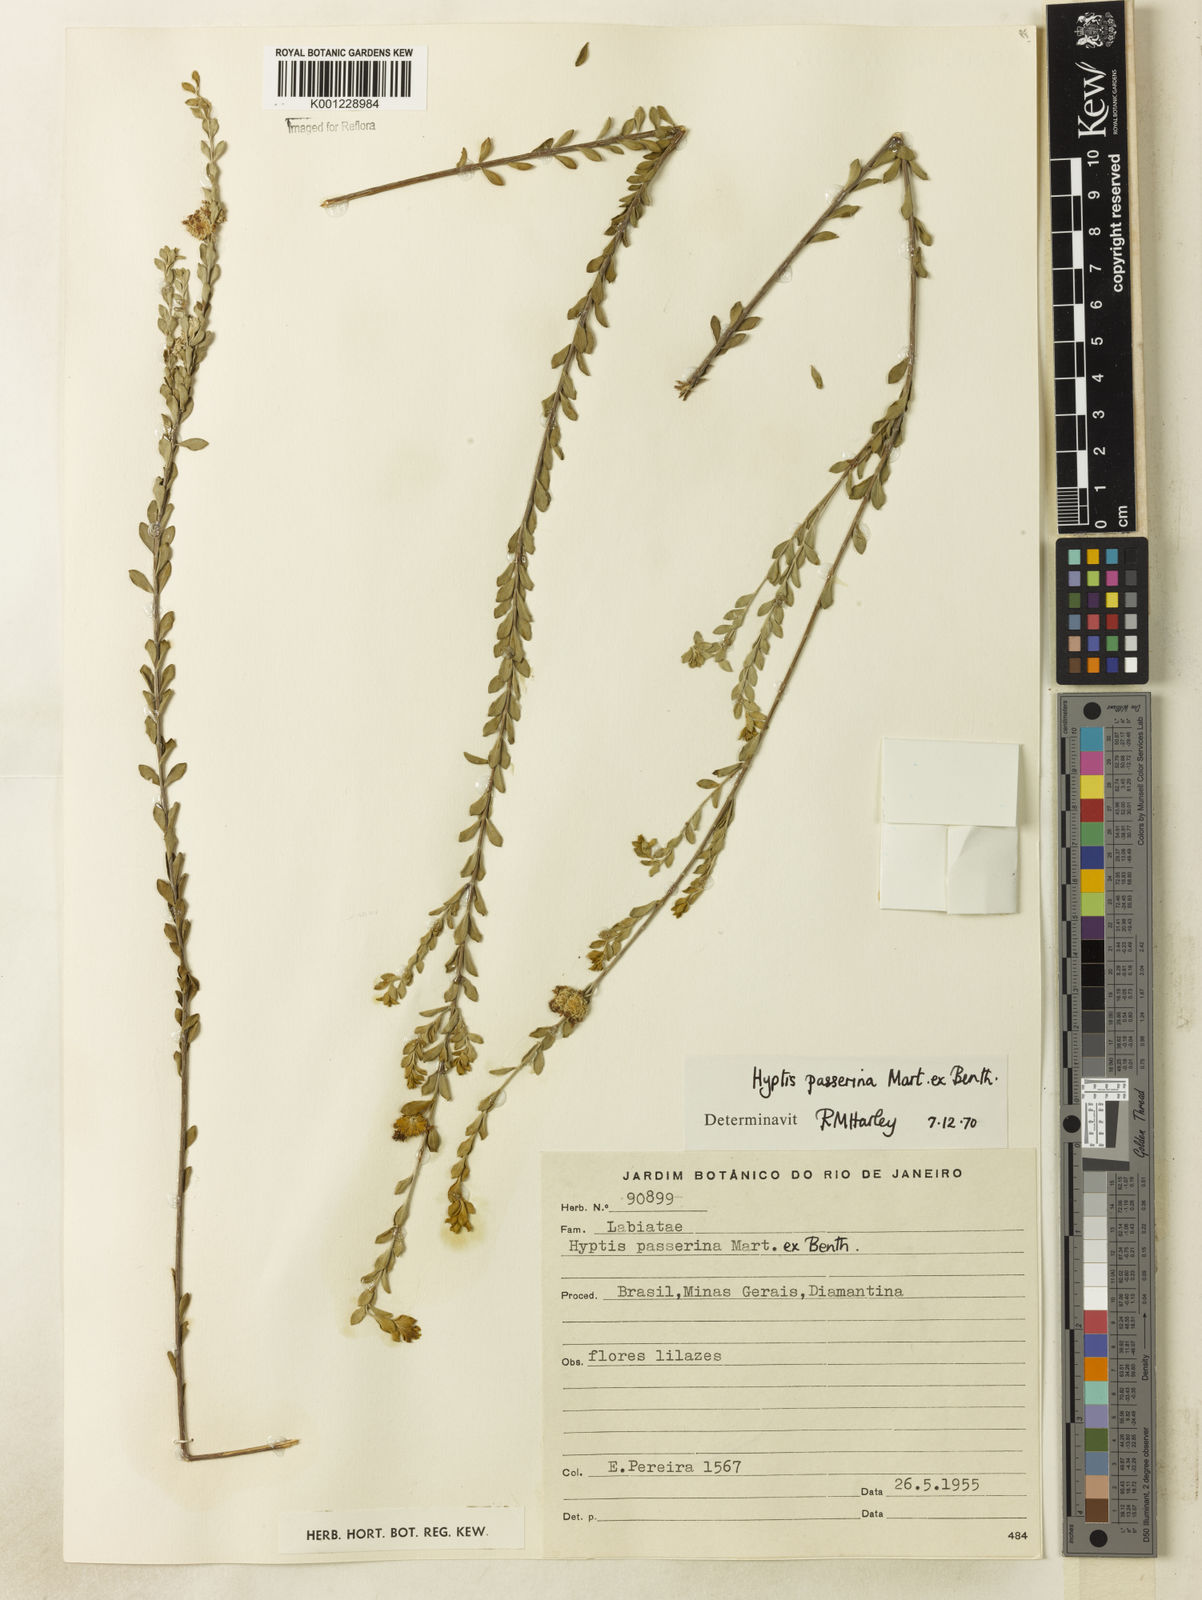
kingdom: Plantae
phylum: Tracheophyta
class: Magnoliopsida
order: Lamiales
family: Lamiaceae
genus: Hyptis
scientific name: Hyptis passerina
